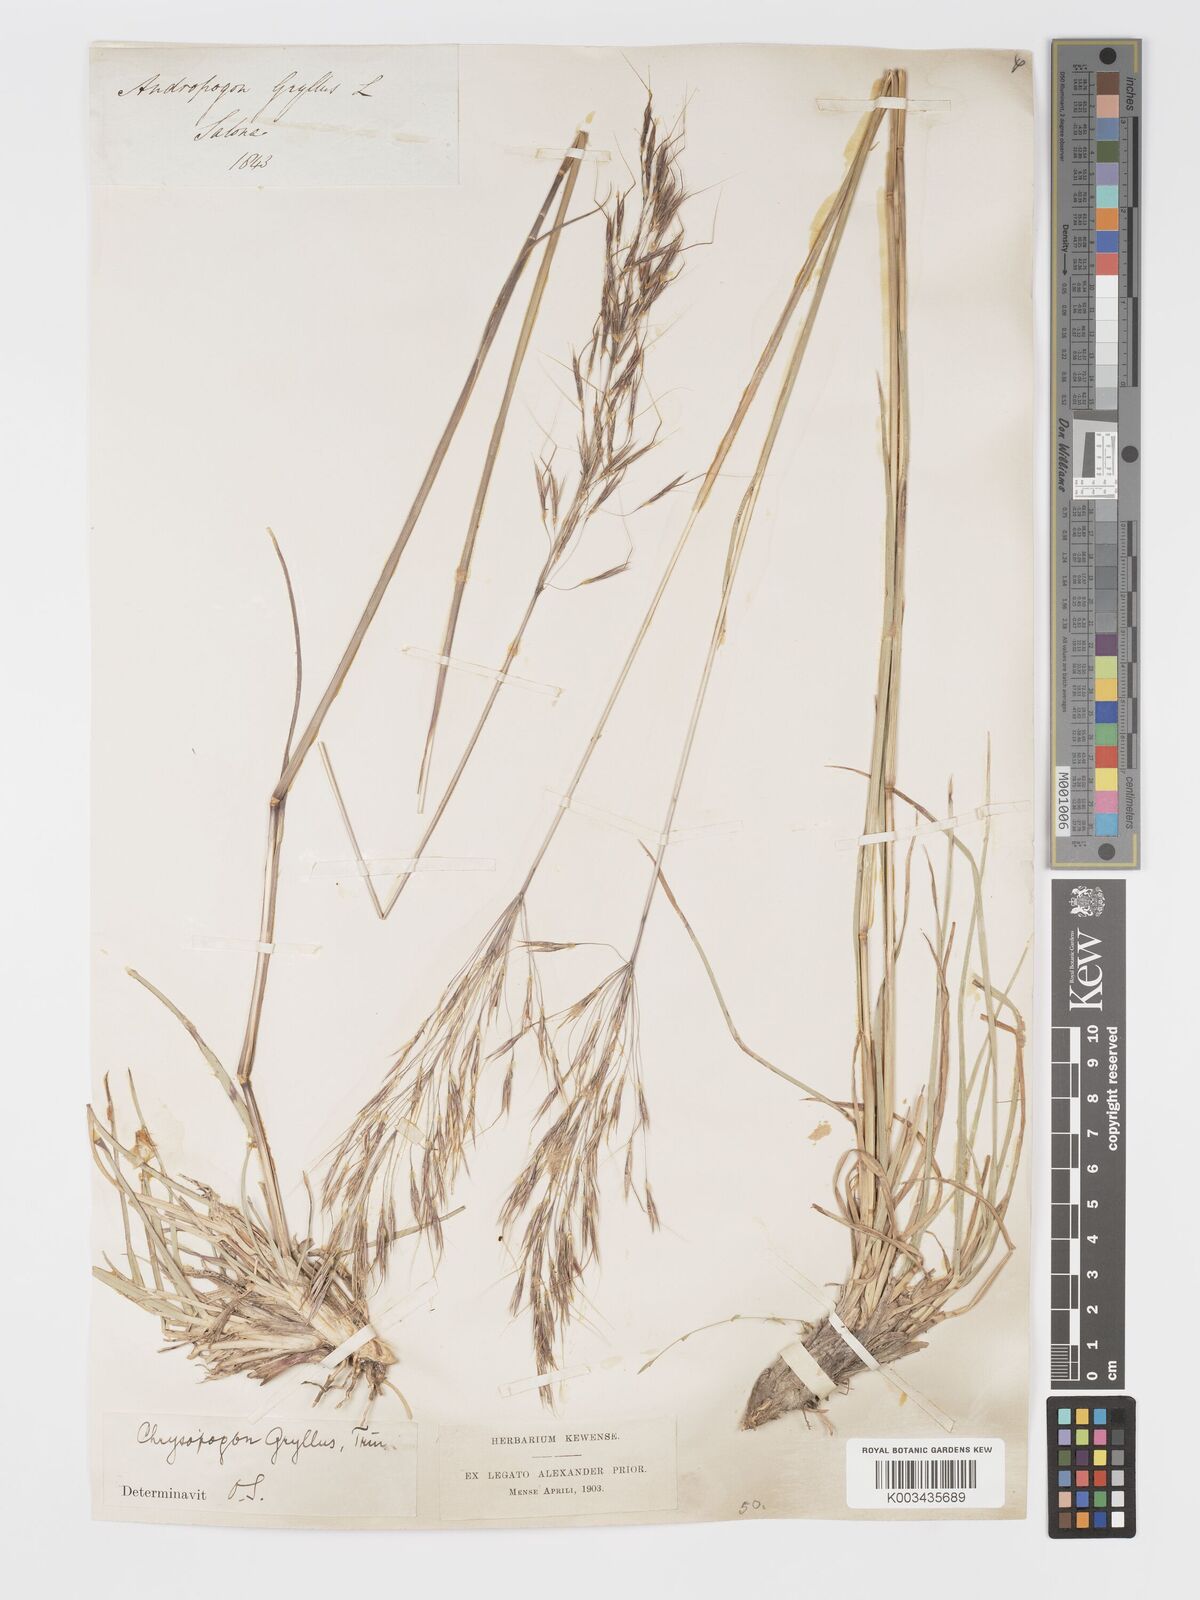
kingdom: Plantae
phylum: Tracheophyta
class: Liliopsida
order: Poales
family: Poaceae
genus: Chrysopogon
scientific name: Chrysopogon gryllus
